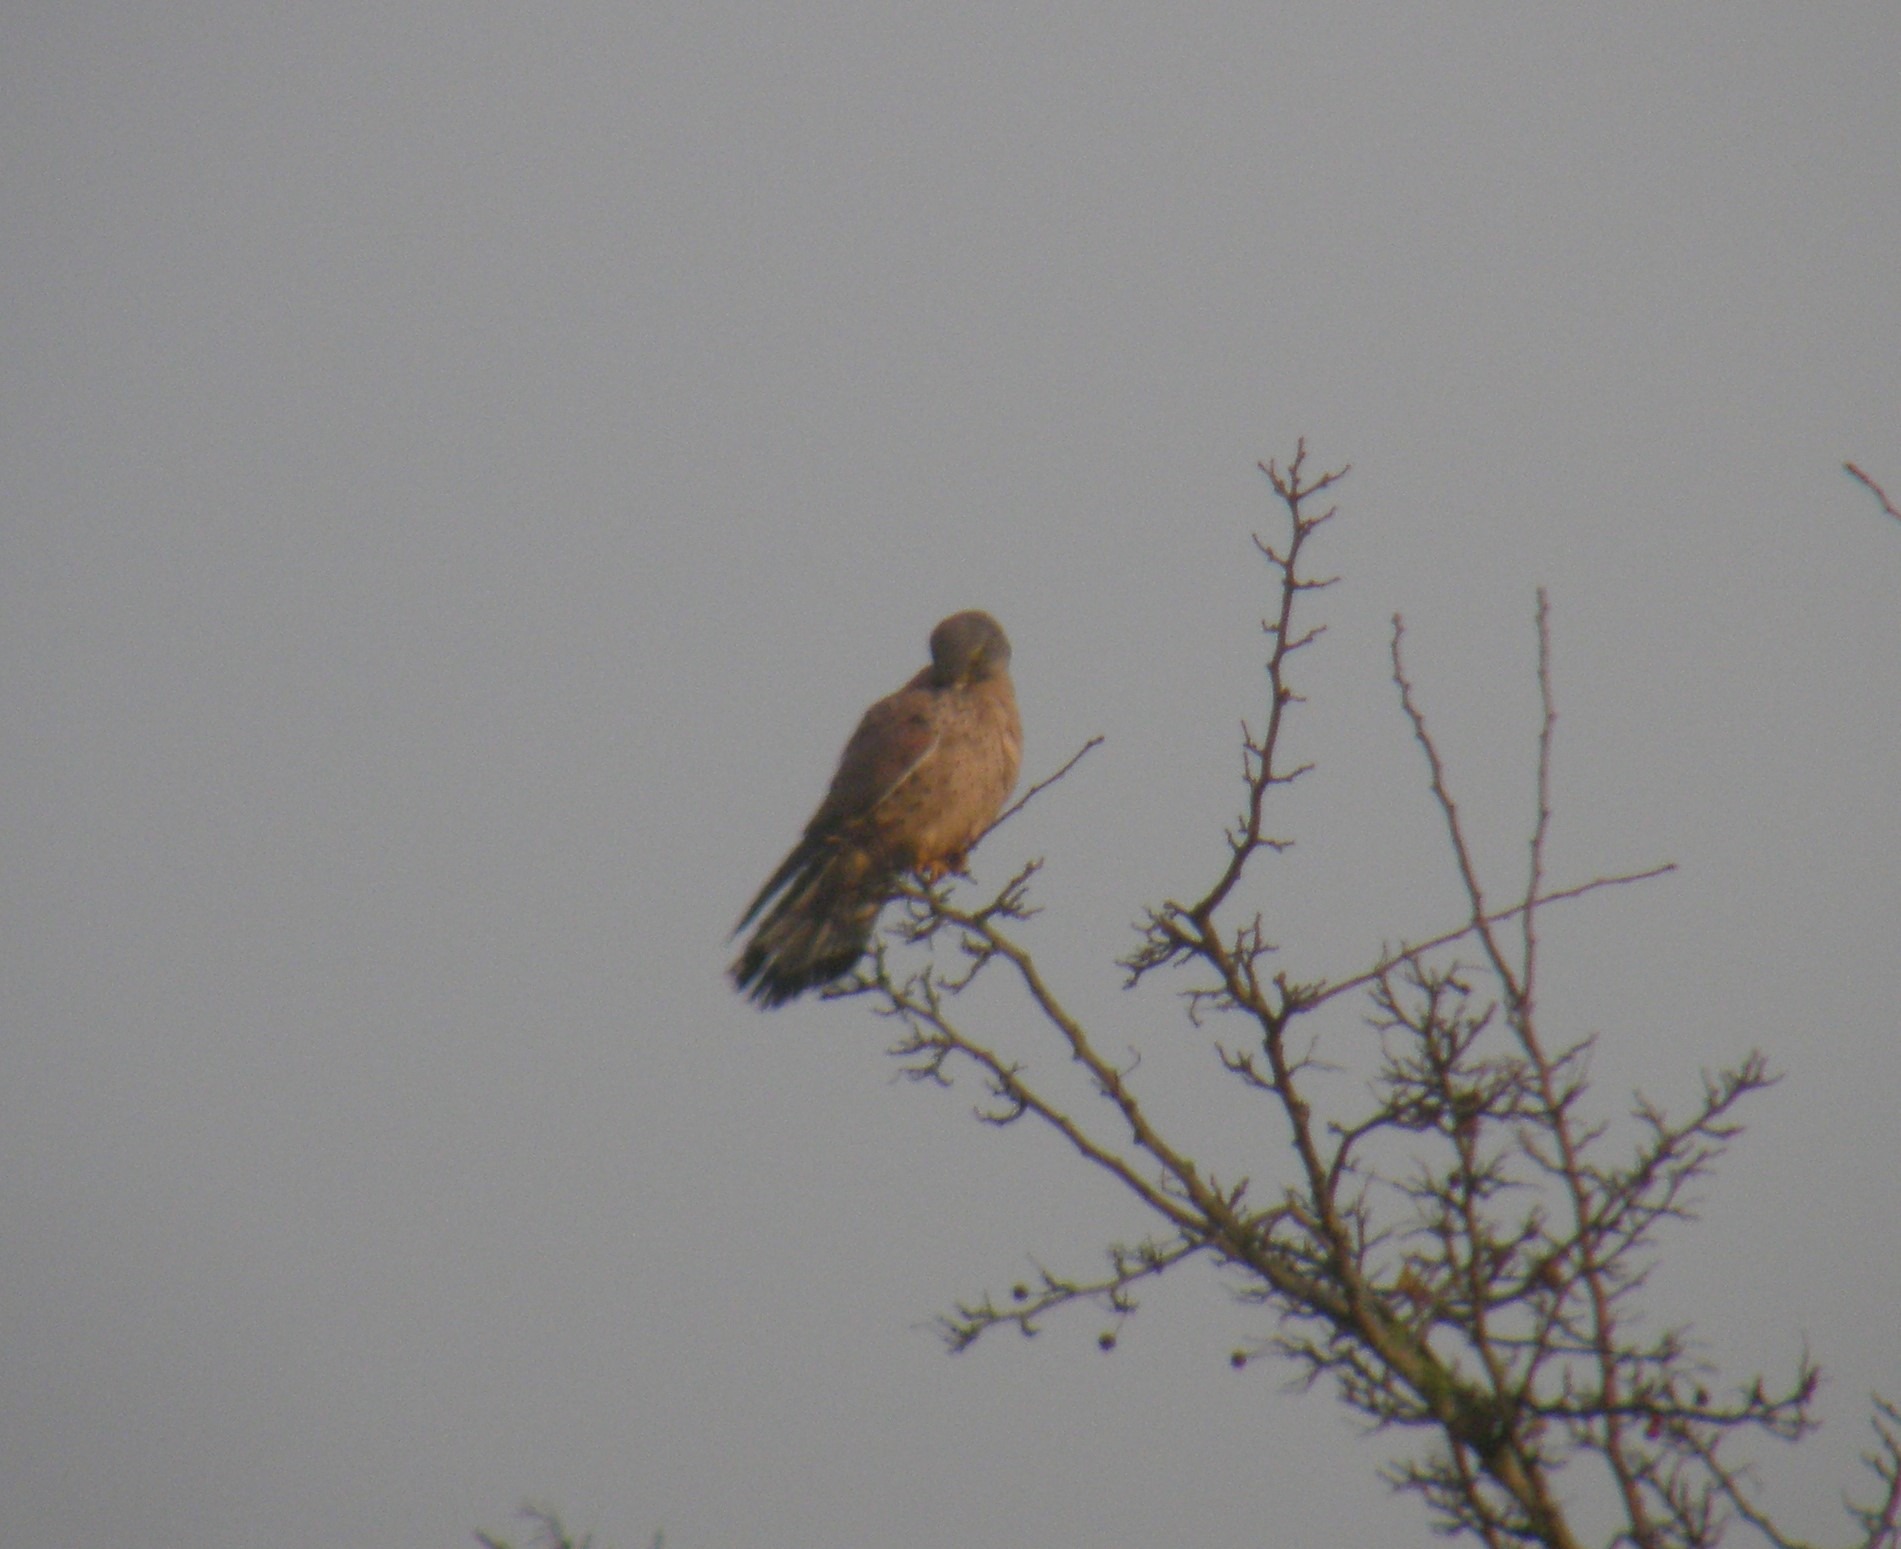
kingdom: Animalia
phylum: Chordata
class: Aves
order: Falconiformes
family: Falconidae
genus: Falco
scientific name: Falco tinnunculus
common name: Tårnfalk
